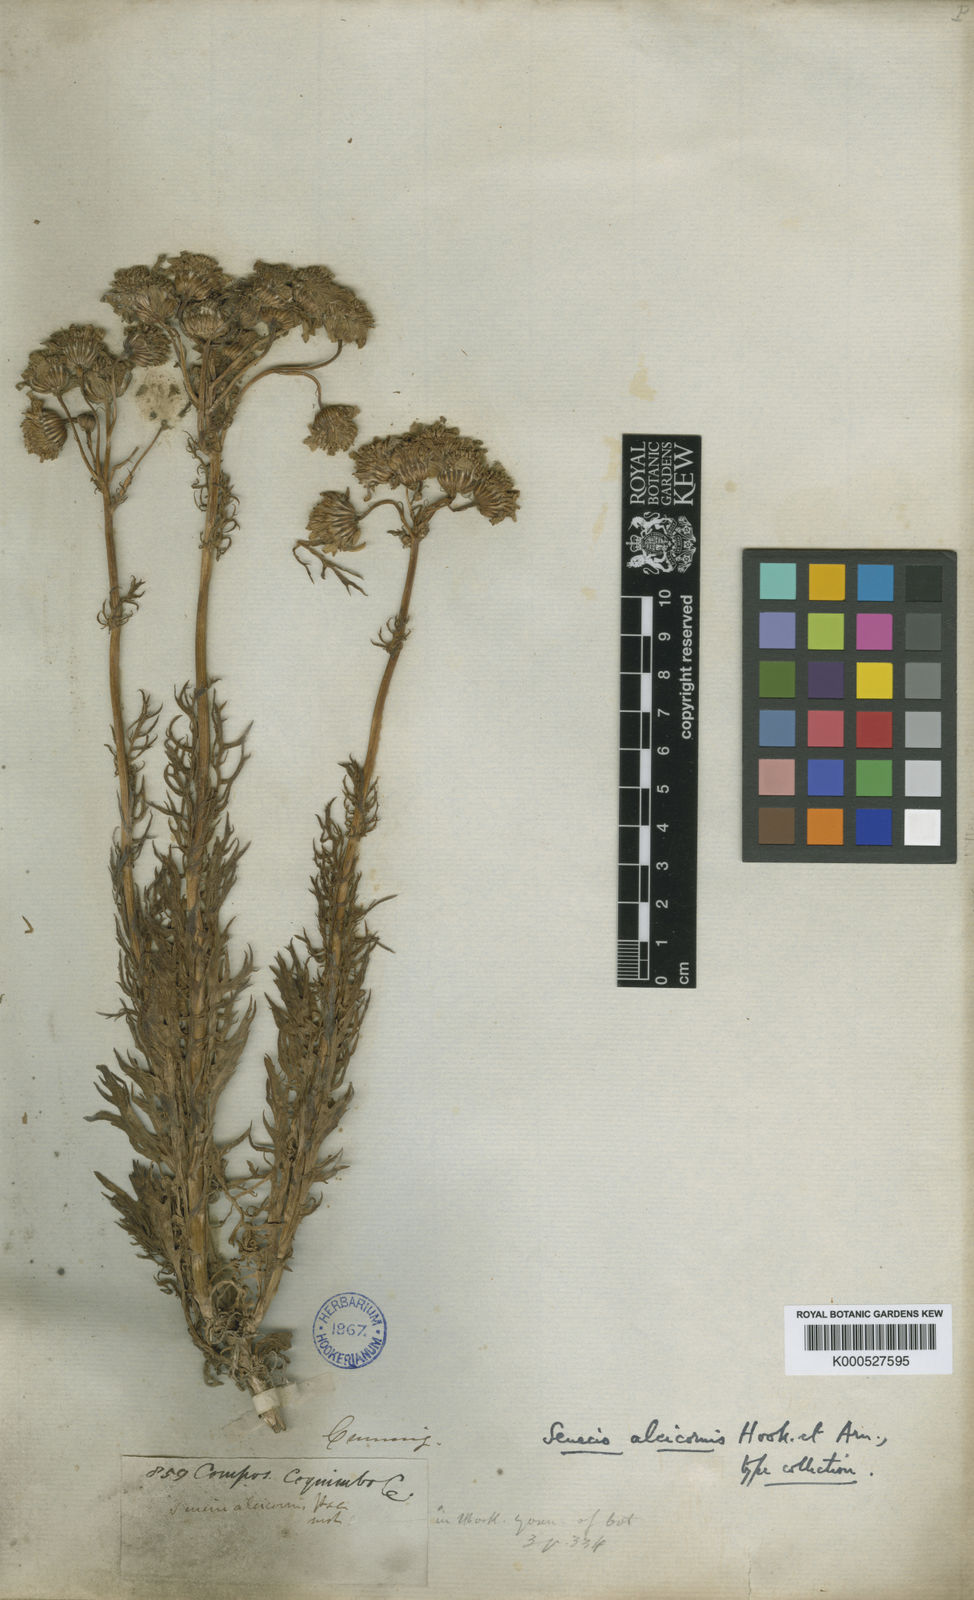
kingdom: Plantae
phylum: Tracheophyta
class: Magnoliopsida
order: Asterales
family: Asteraceae
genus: Senecio
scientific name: Senecio alcicornis
